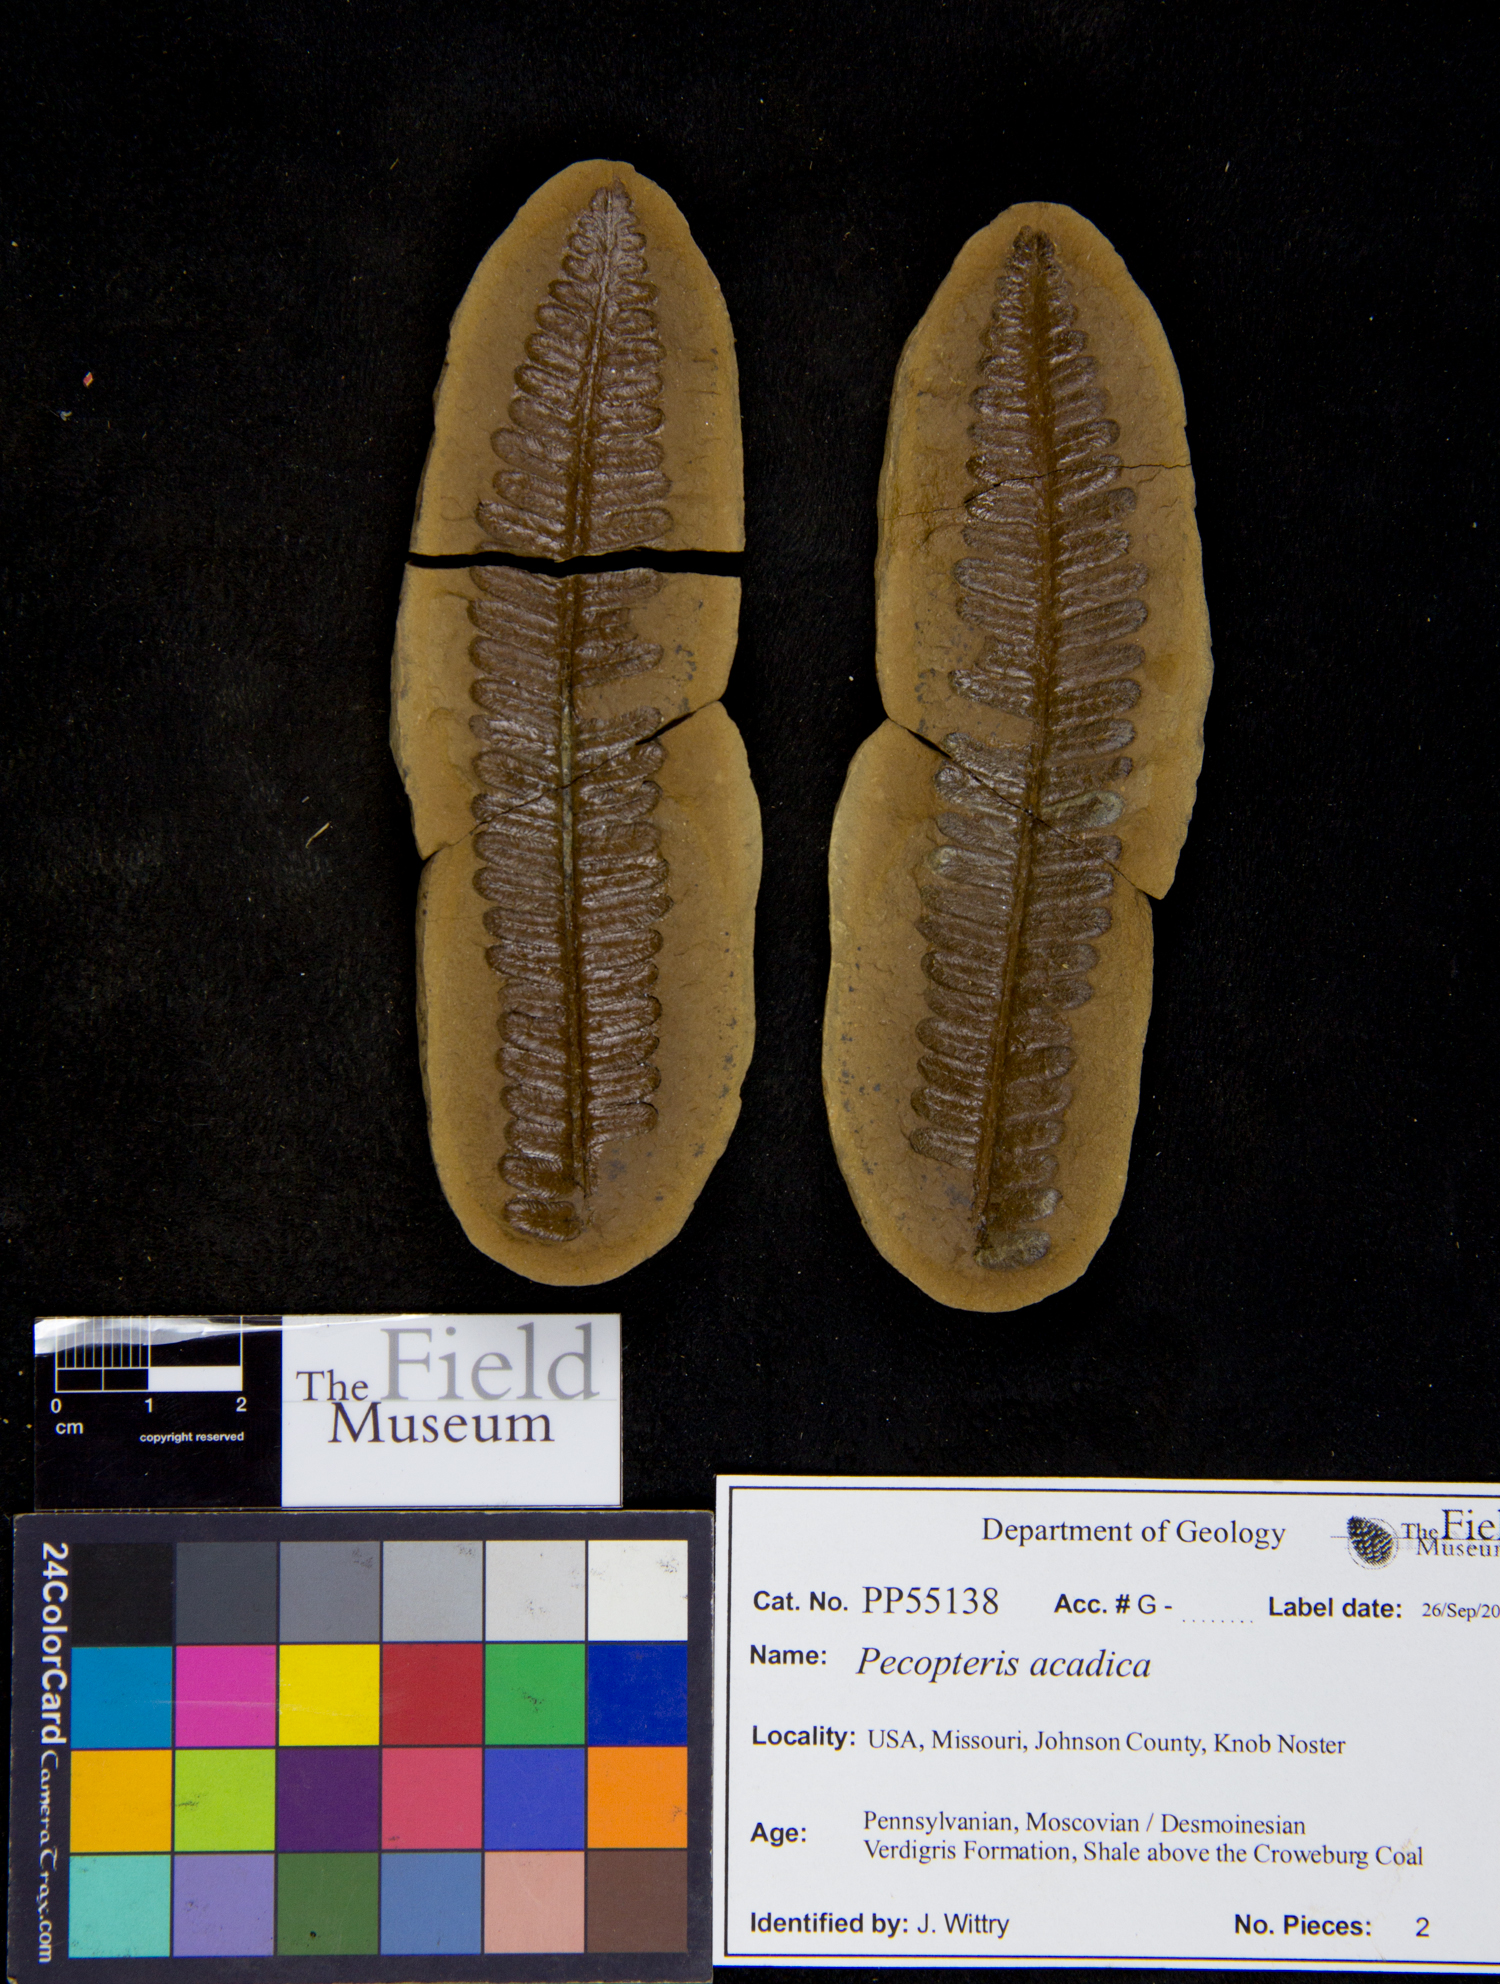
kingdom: Plantae
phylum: Tracheophyta
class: Polypodiopsida
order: Marattiales
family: Asterothecaceae
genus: Pecopteris
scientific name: Pecopteris
